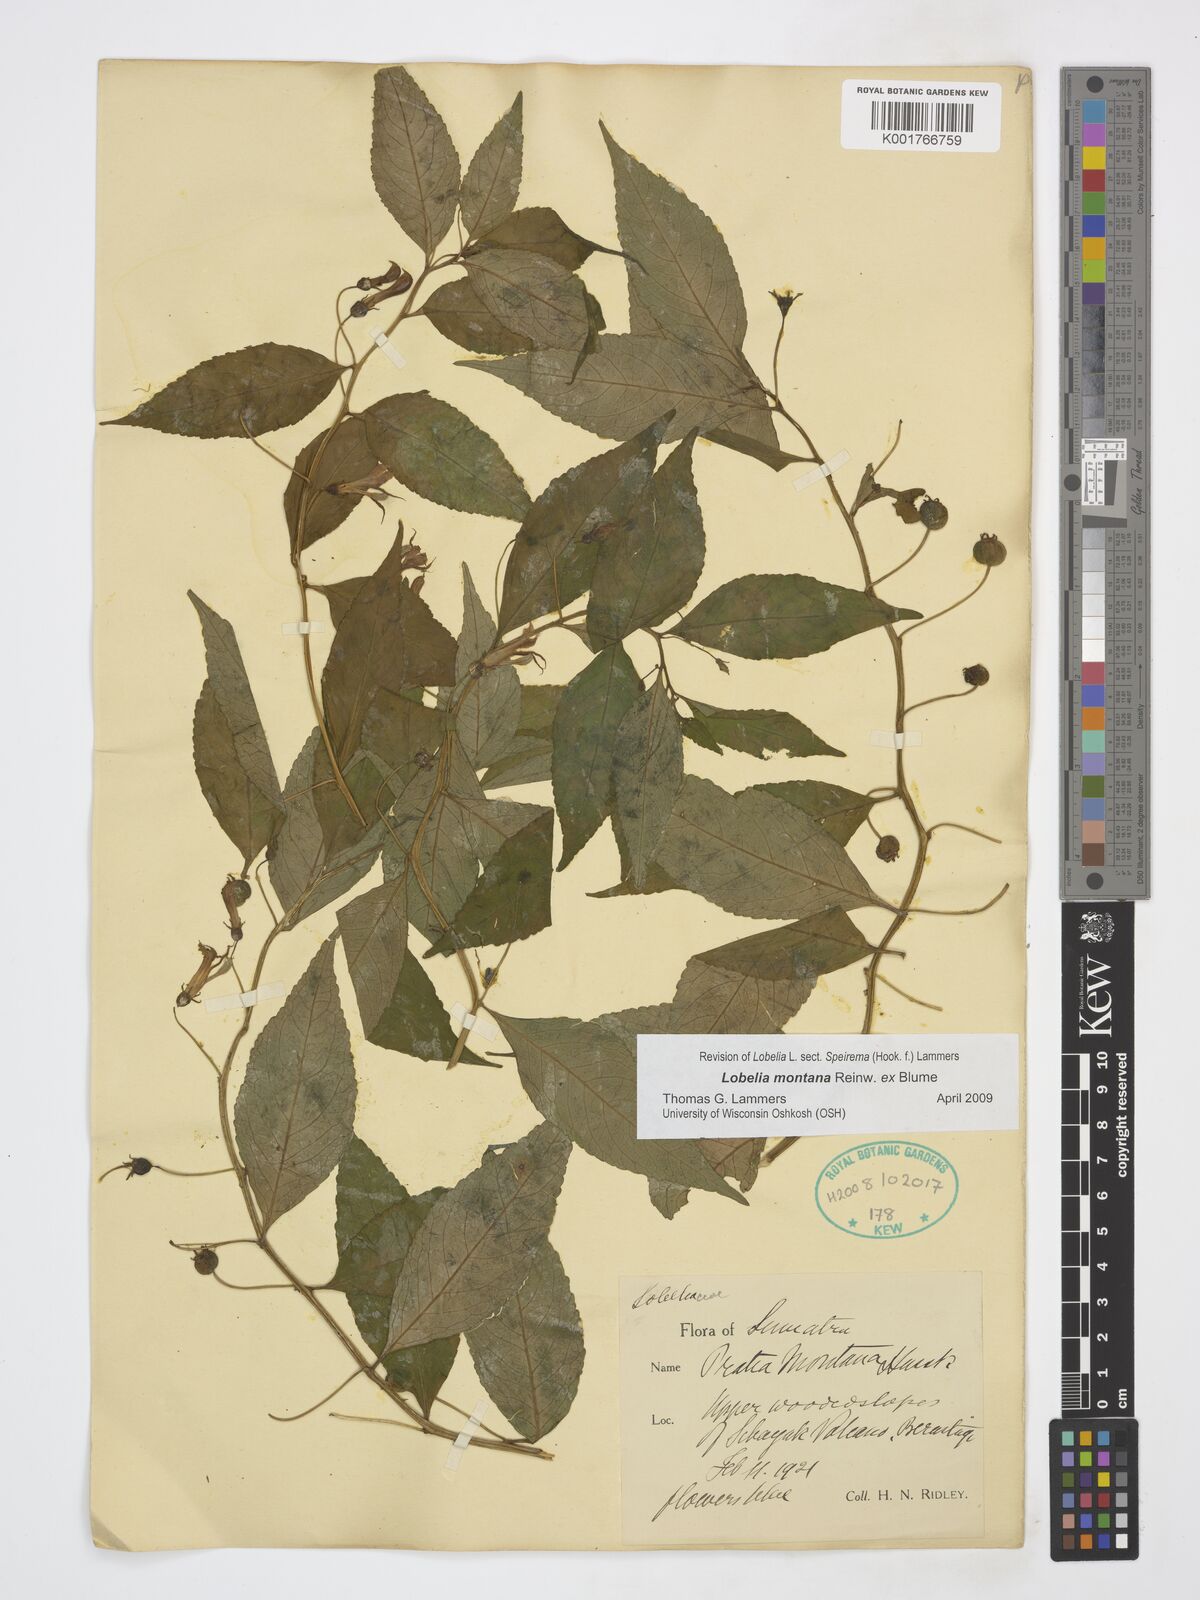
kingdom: Plantae
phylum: Tracheophyta
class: Magnoliopsida
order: Asterales
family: Campanulaceae
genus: Lobelia
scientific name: Lobelia montana
